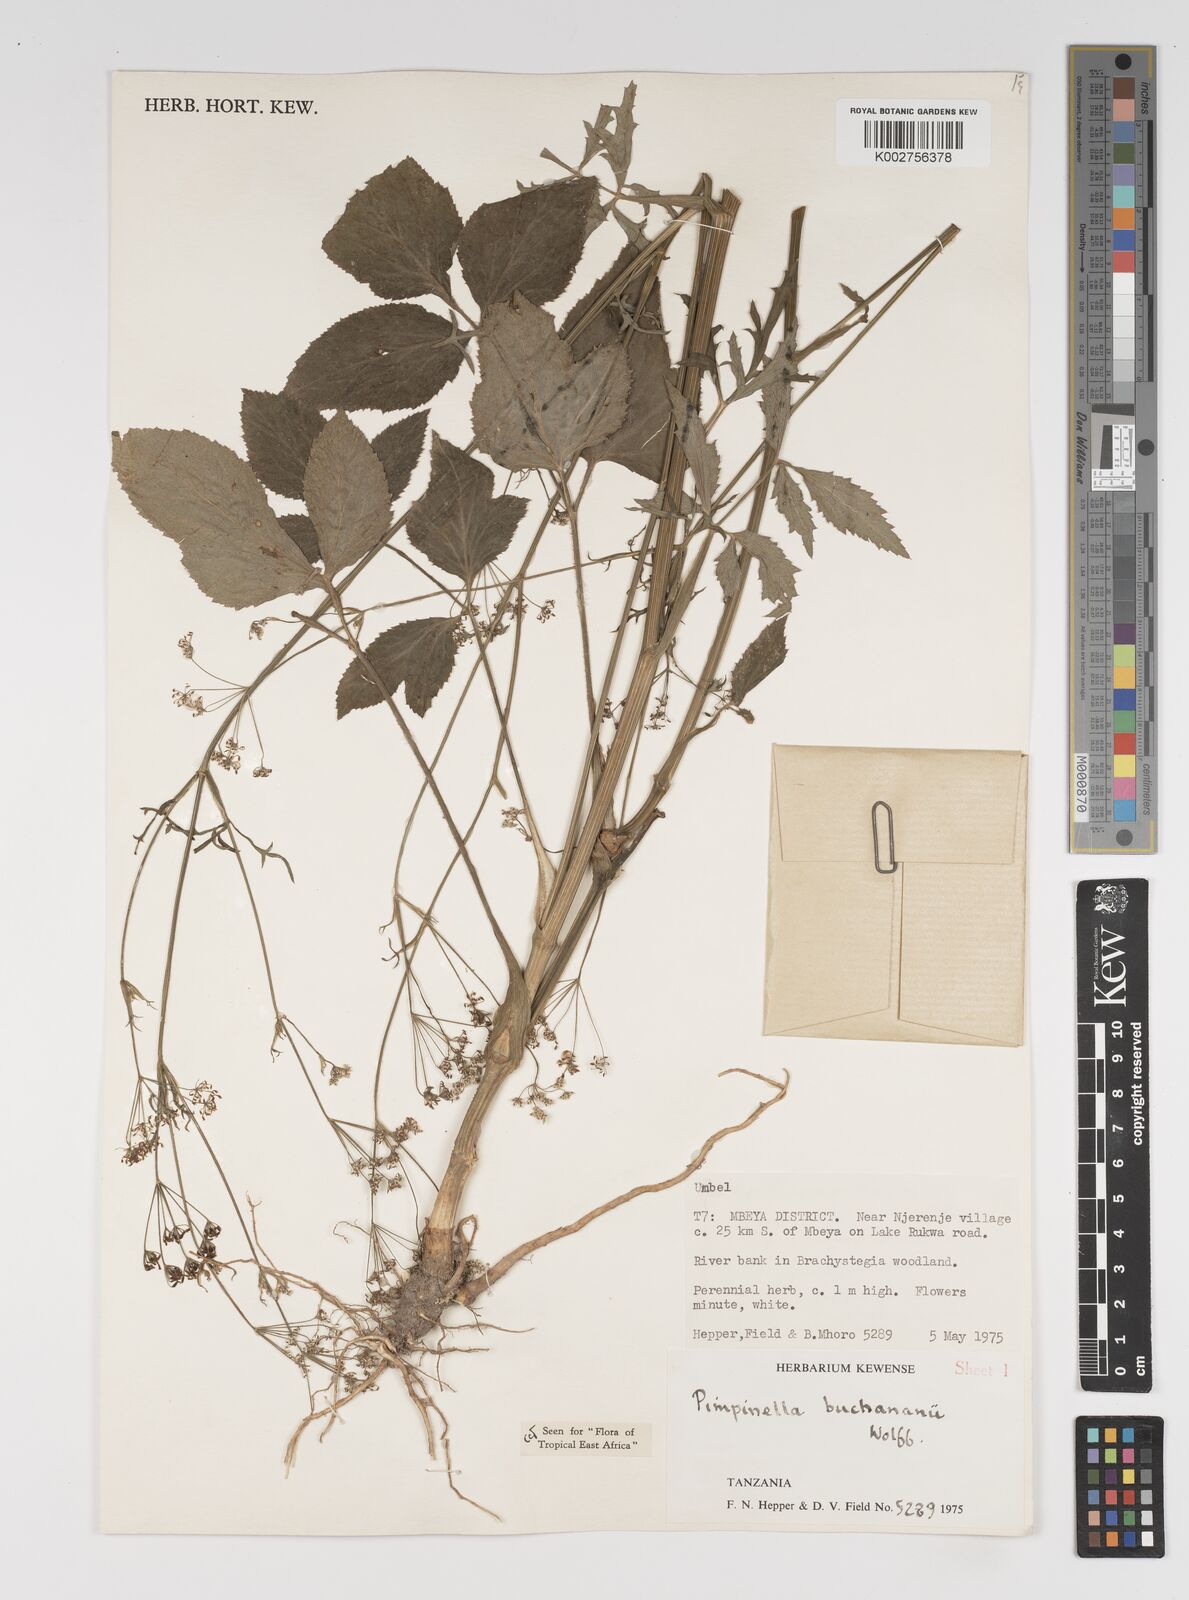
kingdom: Plantae
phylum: Tracheophyta
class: Magnoliopsida
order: Apiales
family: Apiaceae
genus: Pimpinella
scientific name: Pimpinella buchananii
